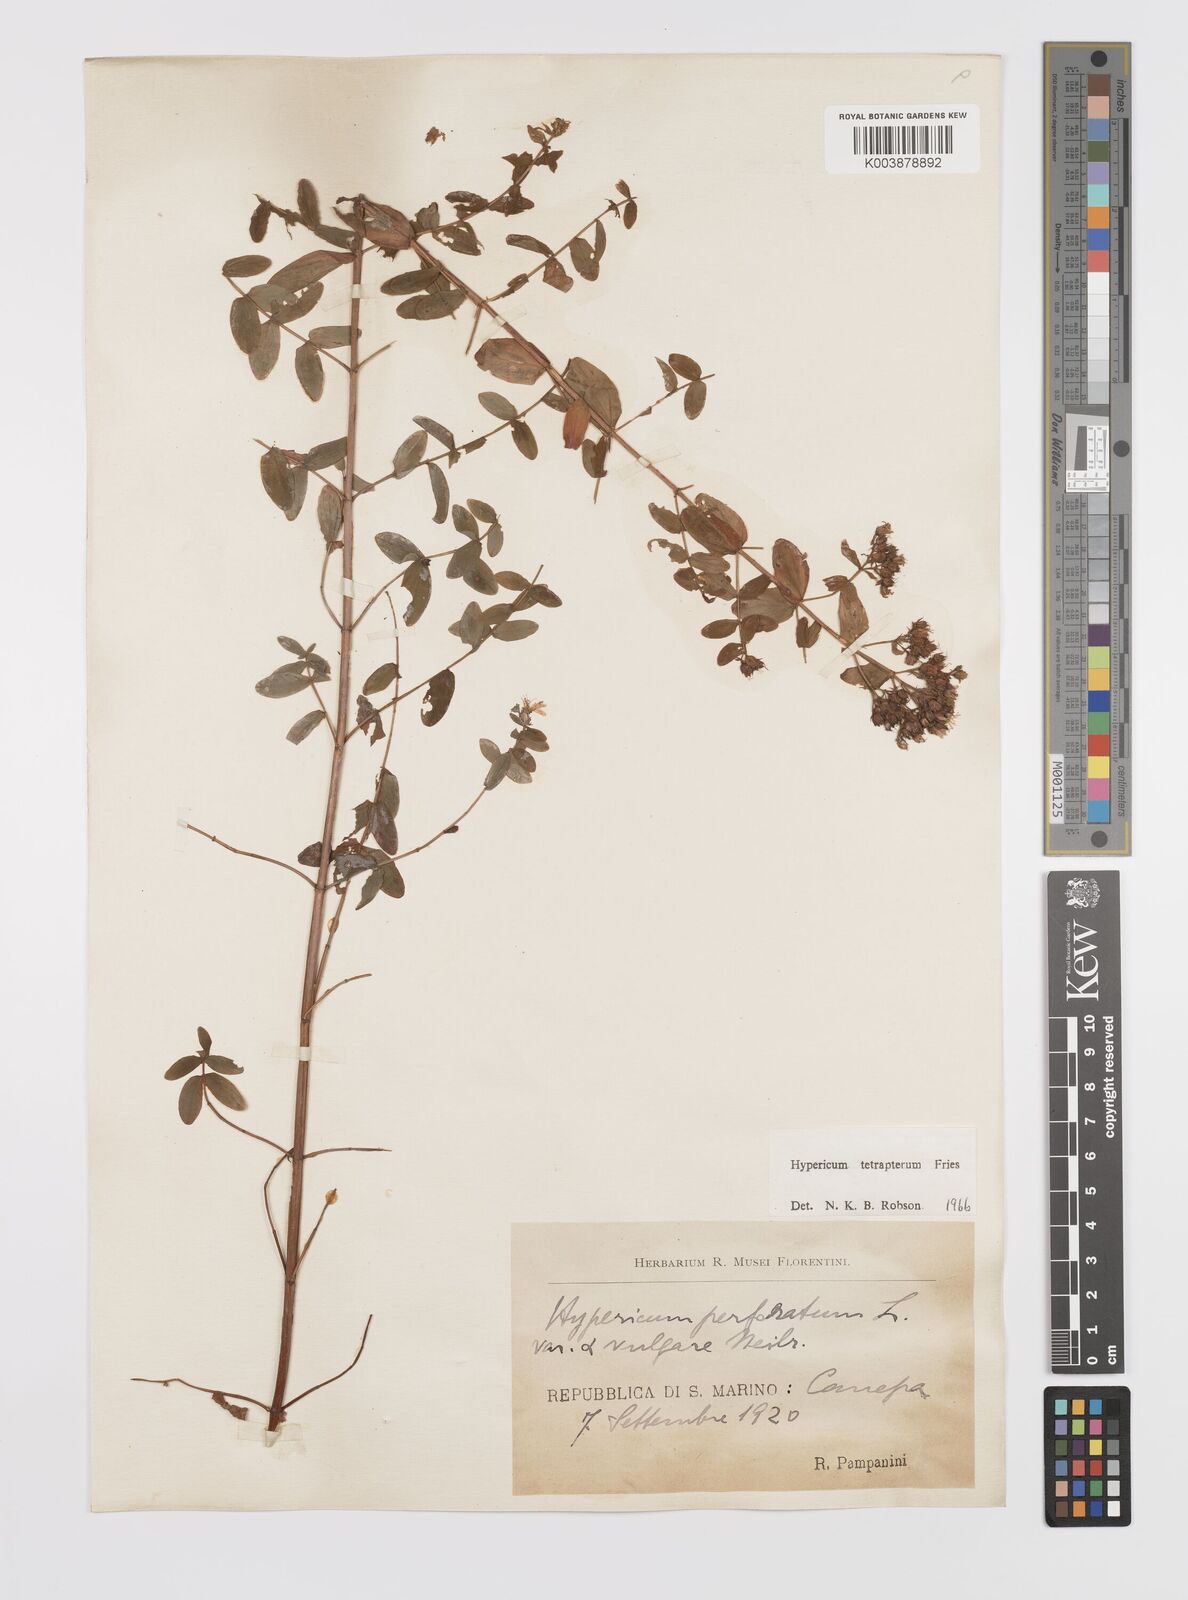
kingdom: Plantae
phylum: Tracheophyta
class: Magnoliopsida
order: Malpighiales
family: Hypericaceae
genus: Hypericum
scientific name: Hypericum tetrapterum
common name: Square-stalked st. john's-wort
